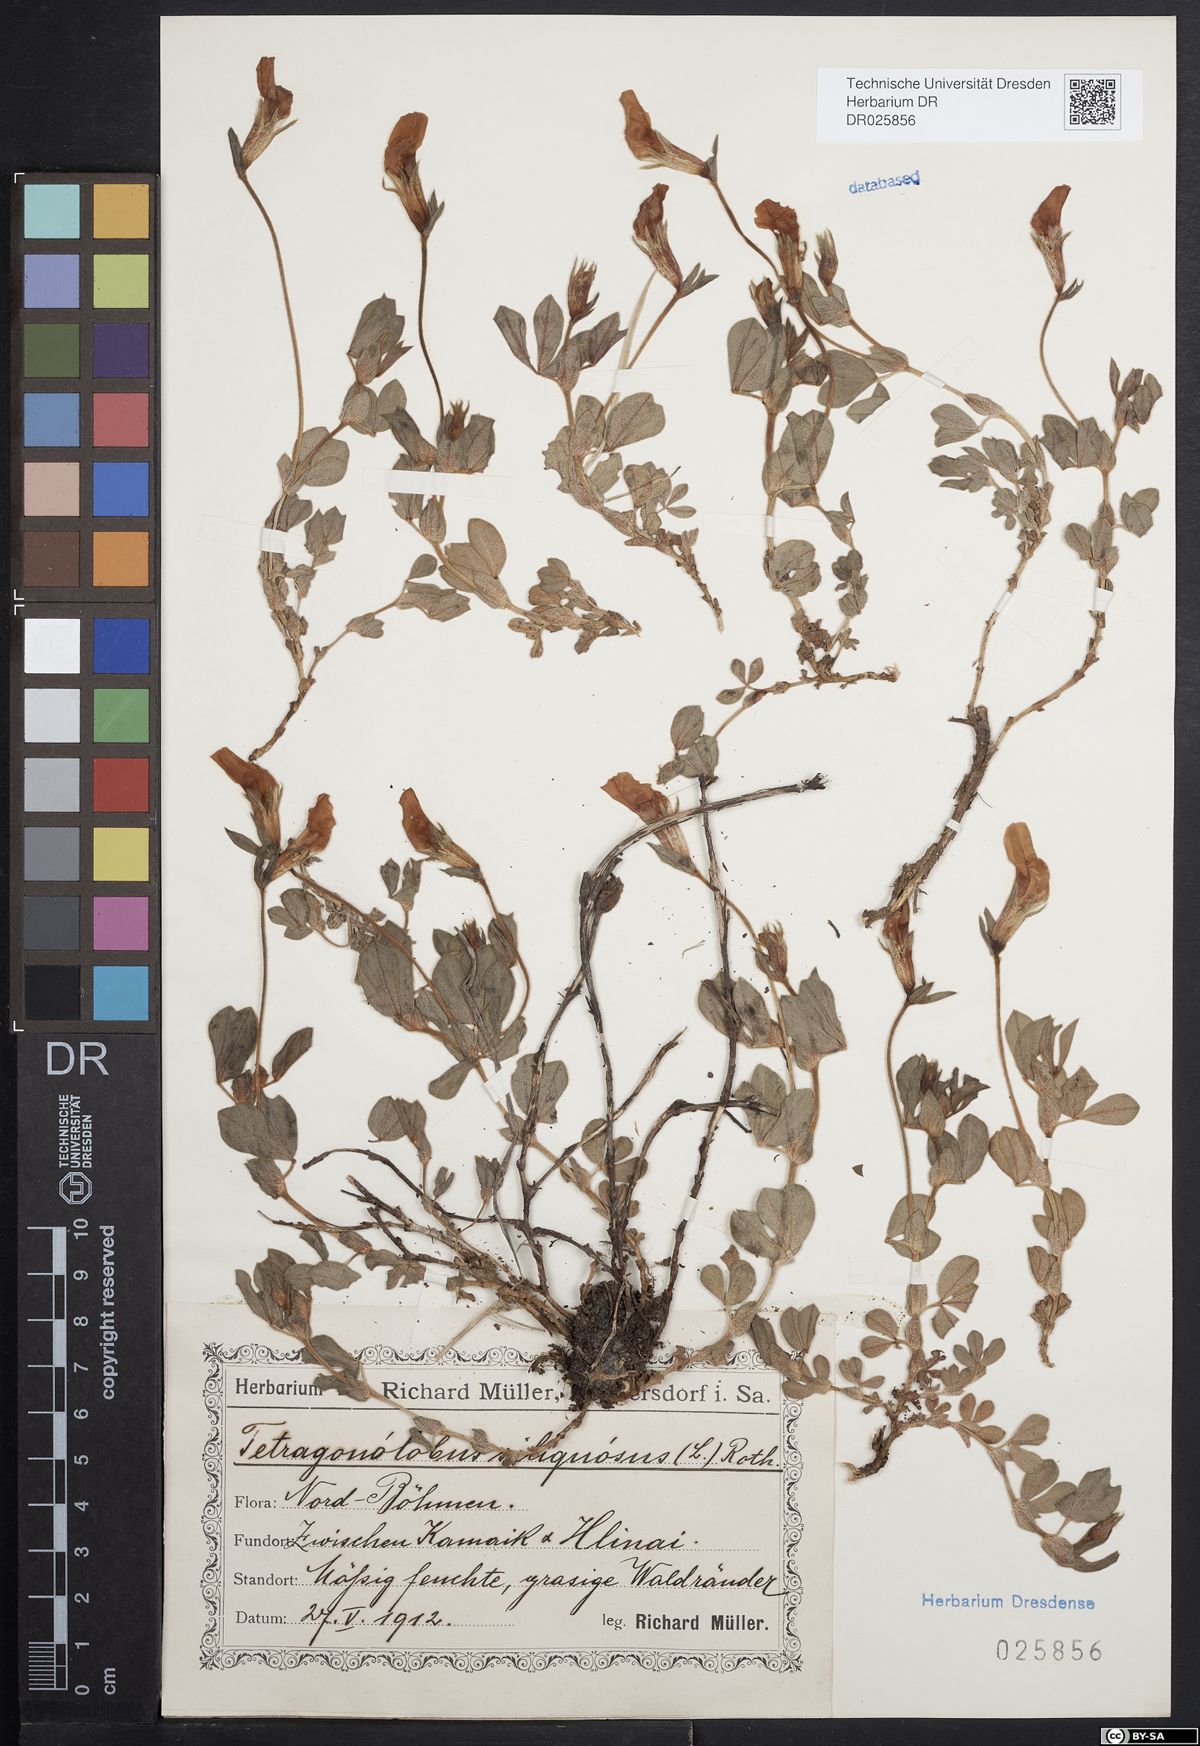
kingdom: Plantae
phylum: Tracheophyta
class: Magnoliopsida
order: Fabales
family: Fabaceae
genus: Lotus
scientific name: Lotus maritimus
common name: Dragon's-teeth
